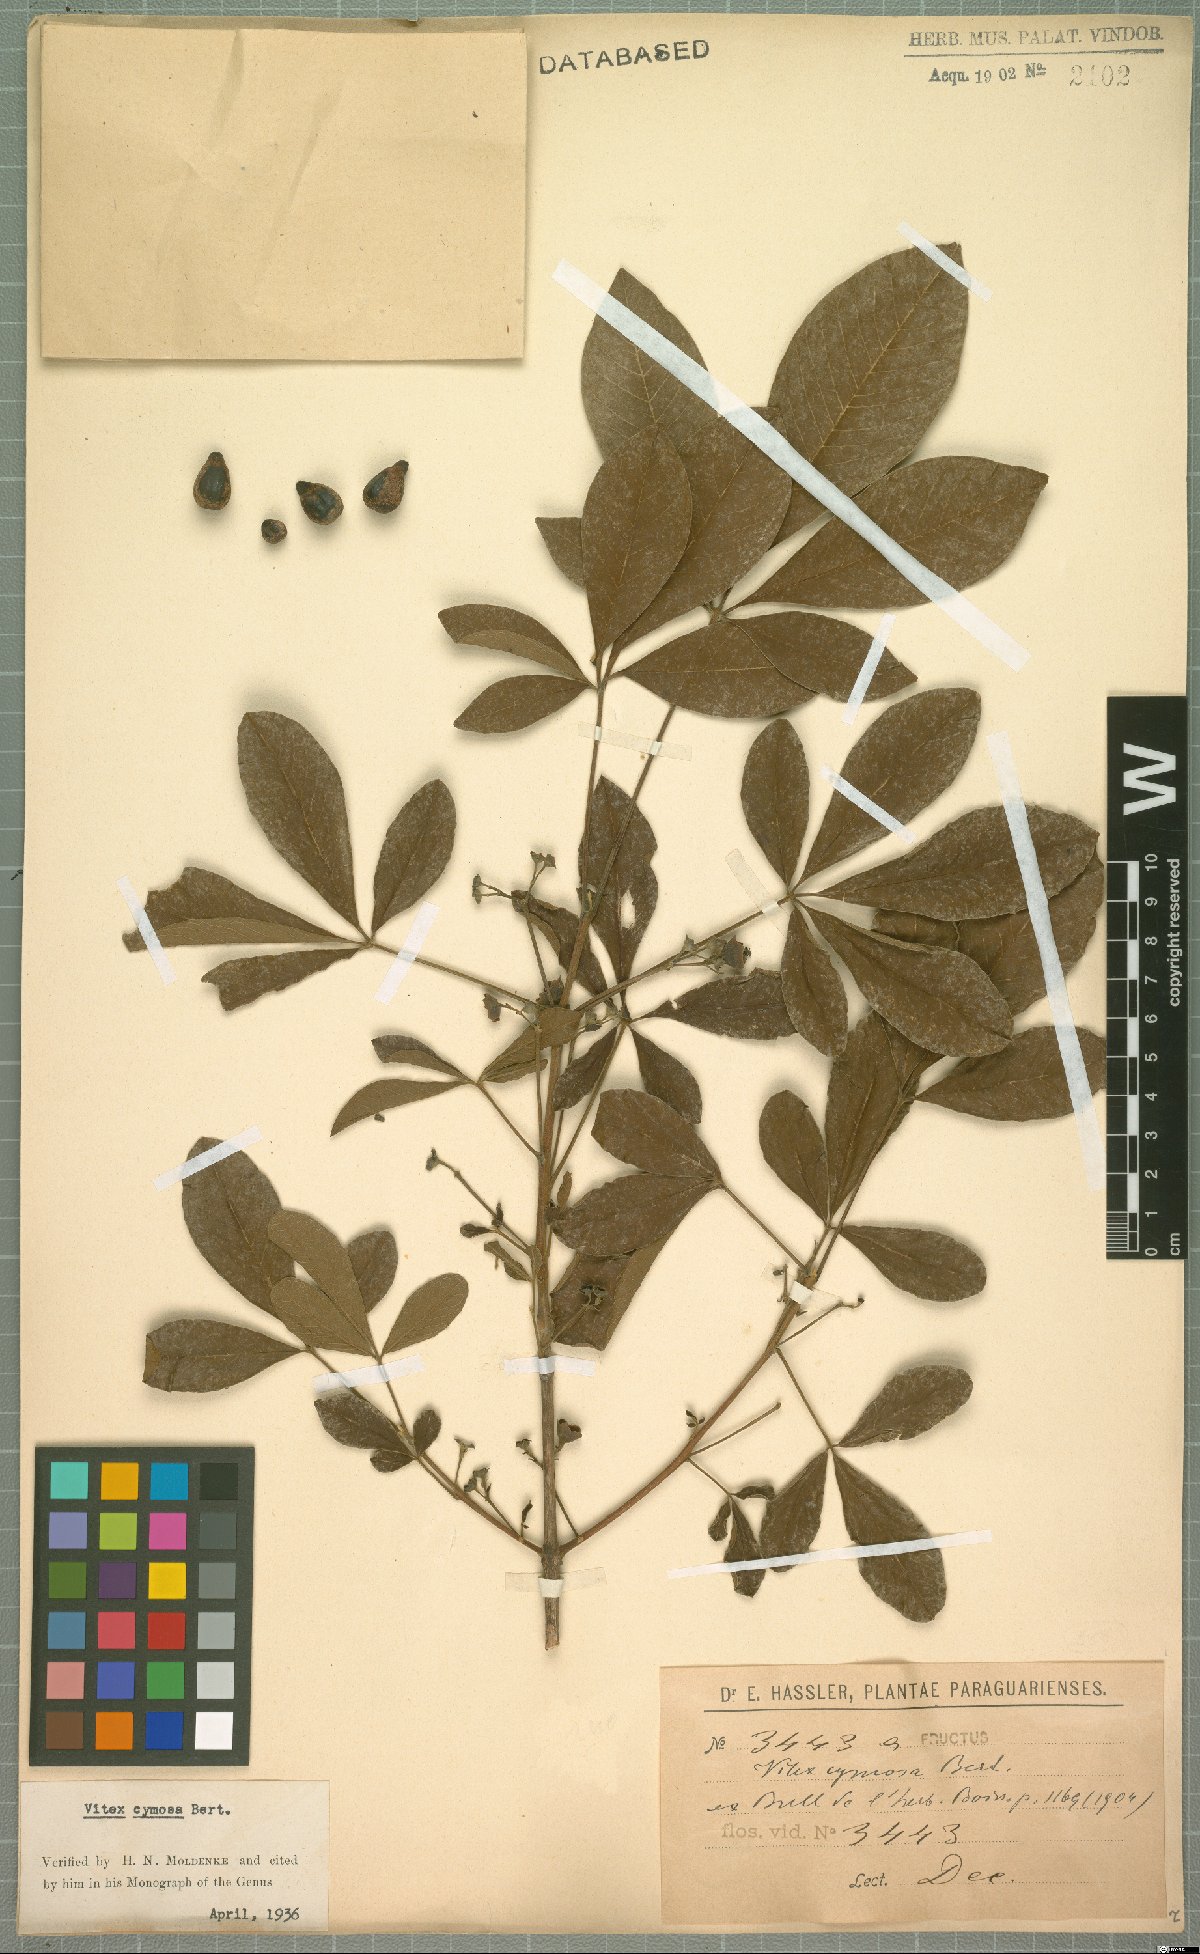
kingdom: Plantae
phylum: Tracheophyta
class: Magnoliopsida
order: Lamiales
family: Lamiaceae
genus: Vitex
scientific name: Vitex cymosa
